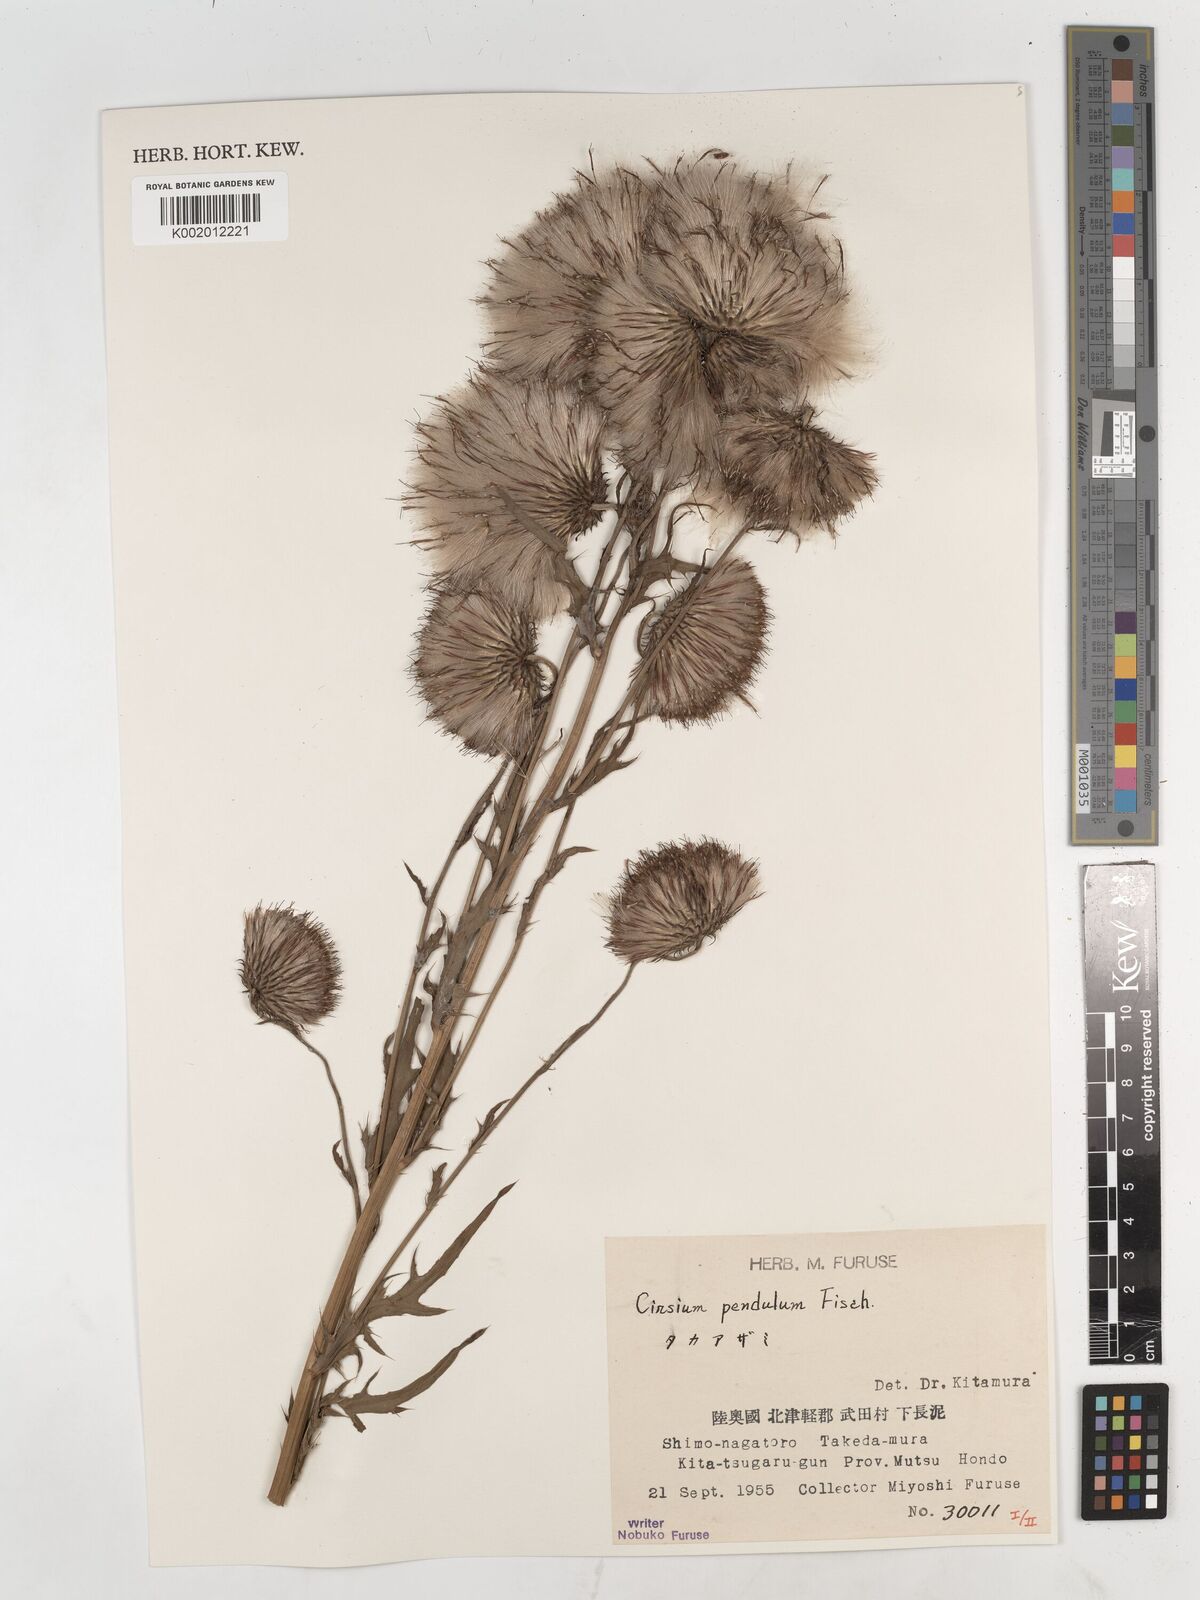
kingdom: Plantae
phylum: Tracheophyta
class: Magnoliopsida
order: Asterales
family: Asteraceae
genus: Cirsium
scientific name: Cirsium pendulum
